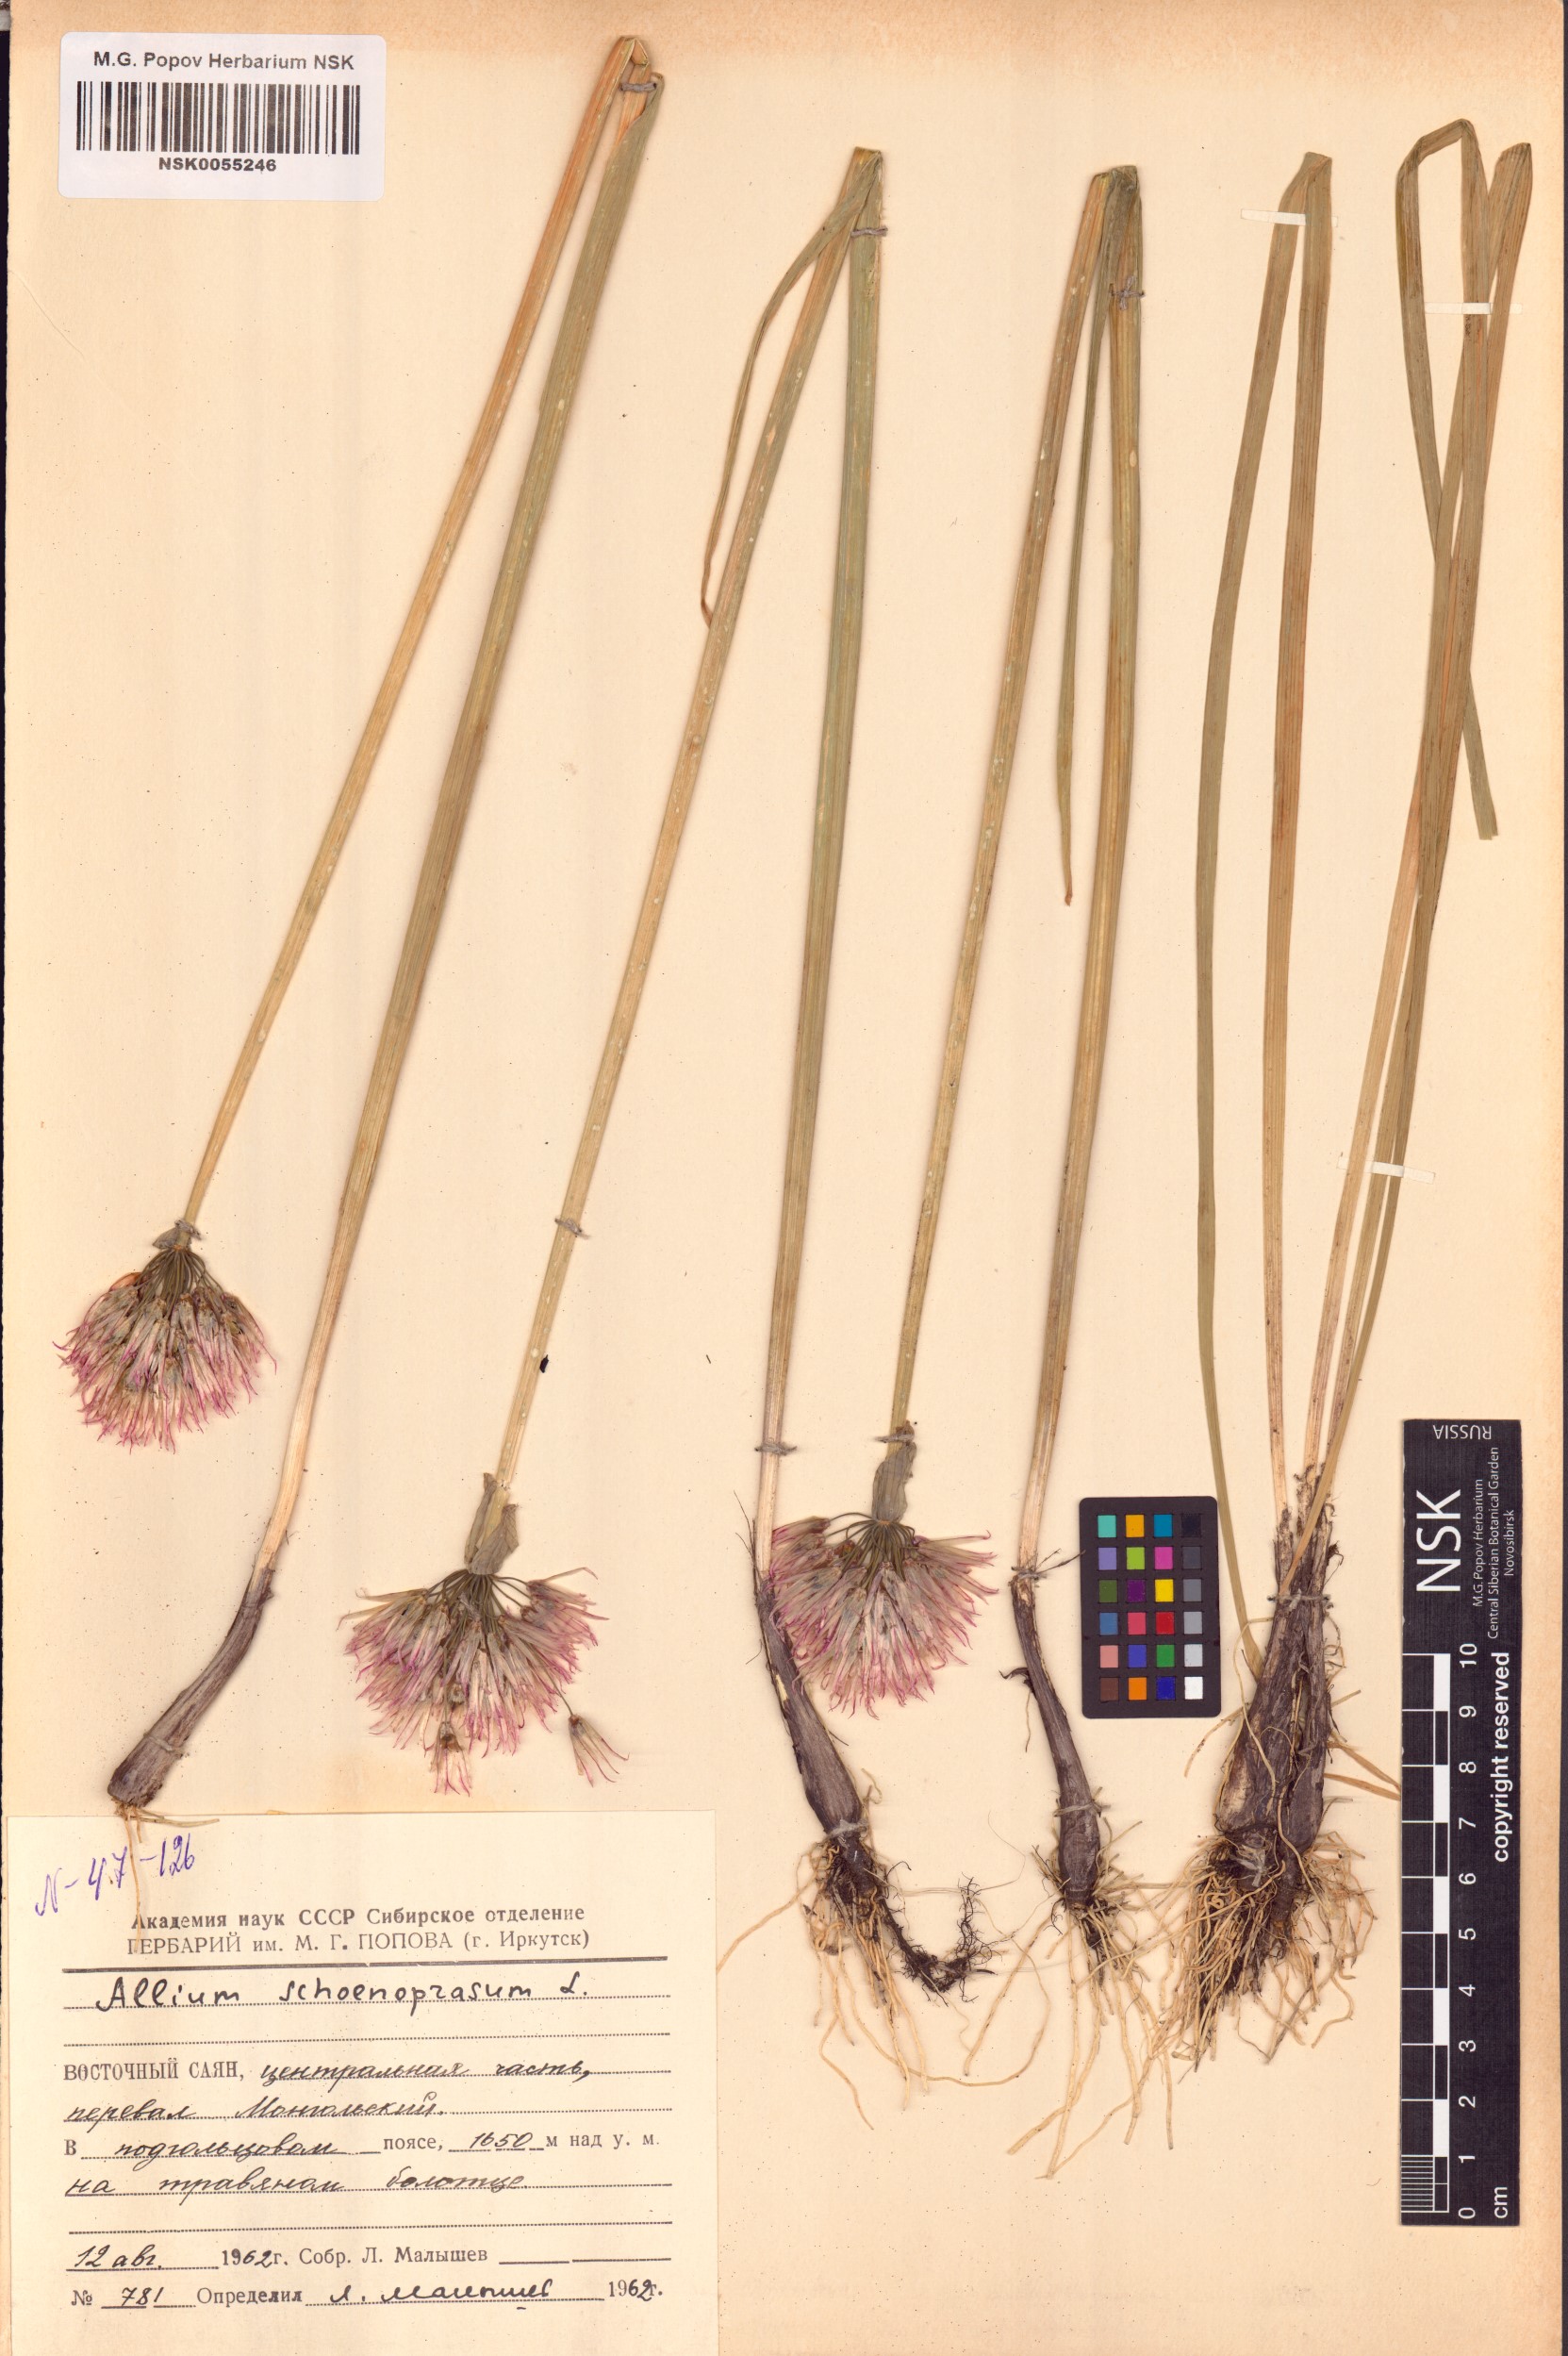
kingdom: Plantae
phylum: Tracheophyta
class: Liliopsida
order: Asparagales
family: Amaryllidaceae
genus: Allium
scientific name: Allium schoenoprasum
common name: Chives
